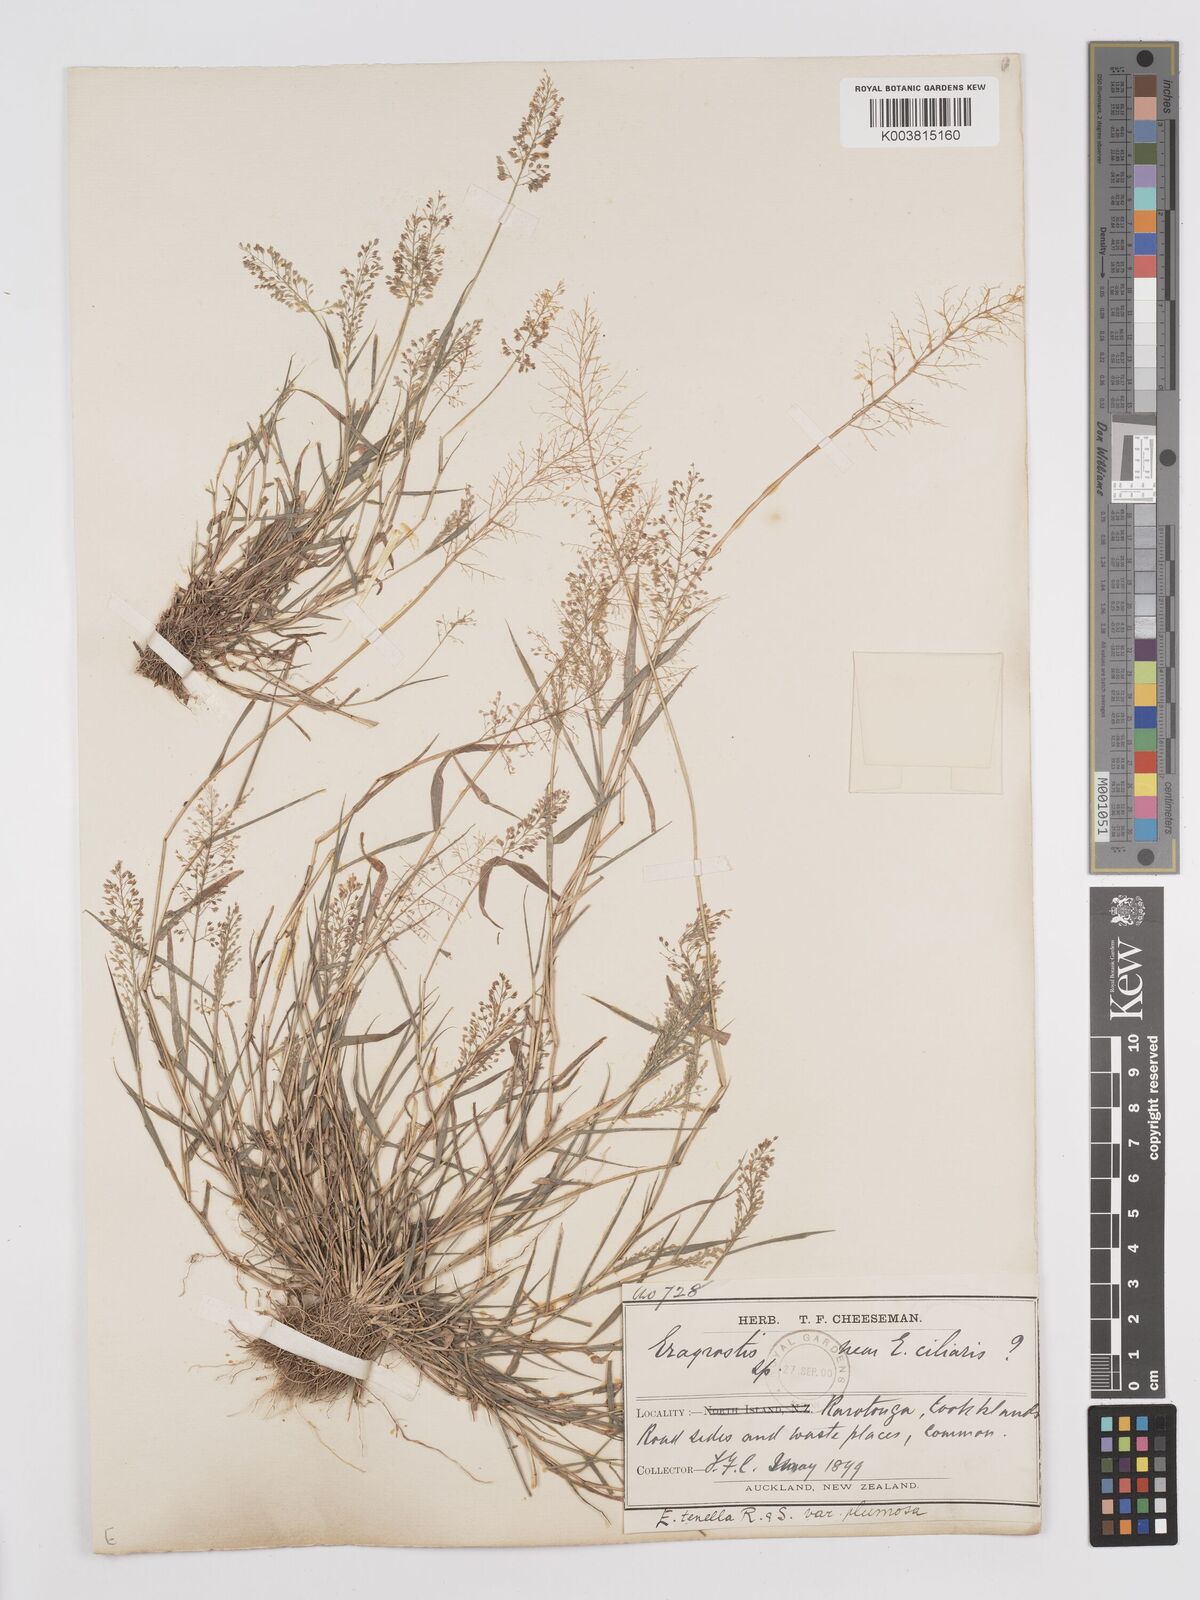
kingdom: Plantae
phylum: Tracheophyta
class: Liliopsida
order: Poales
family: Poaceae
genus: Eragrostis
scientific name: Eragrostis tenella
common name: Japanese lovegrass
